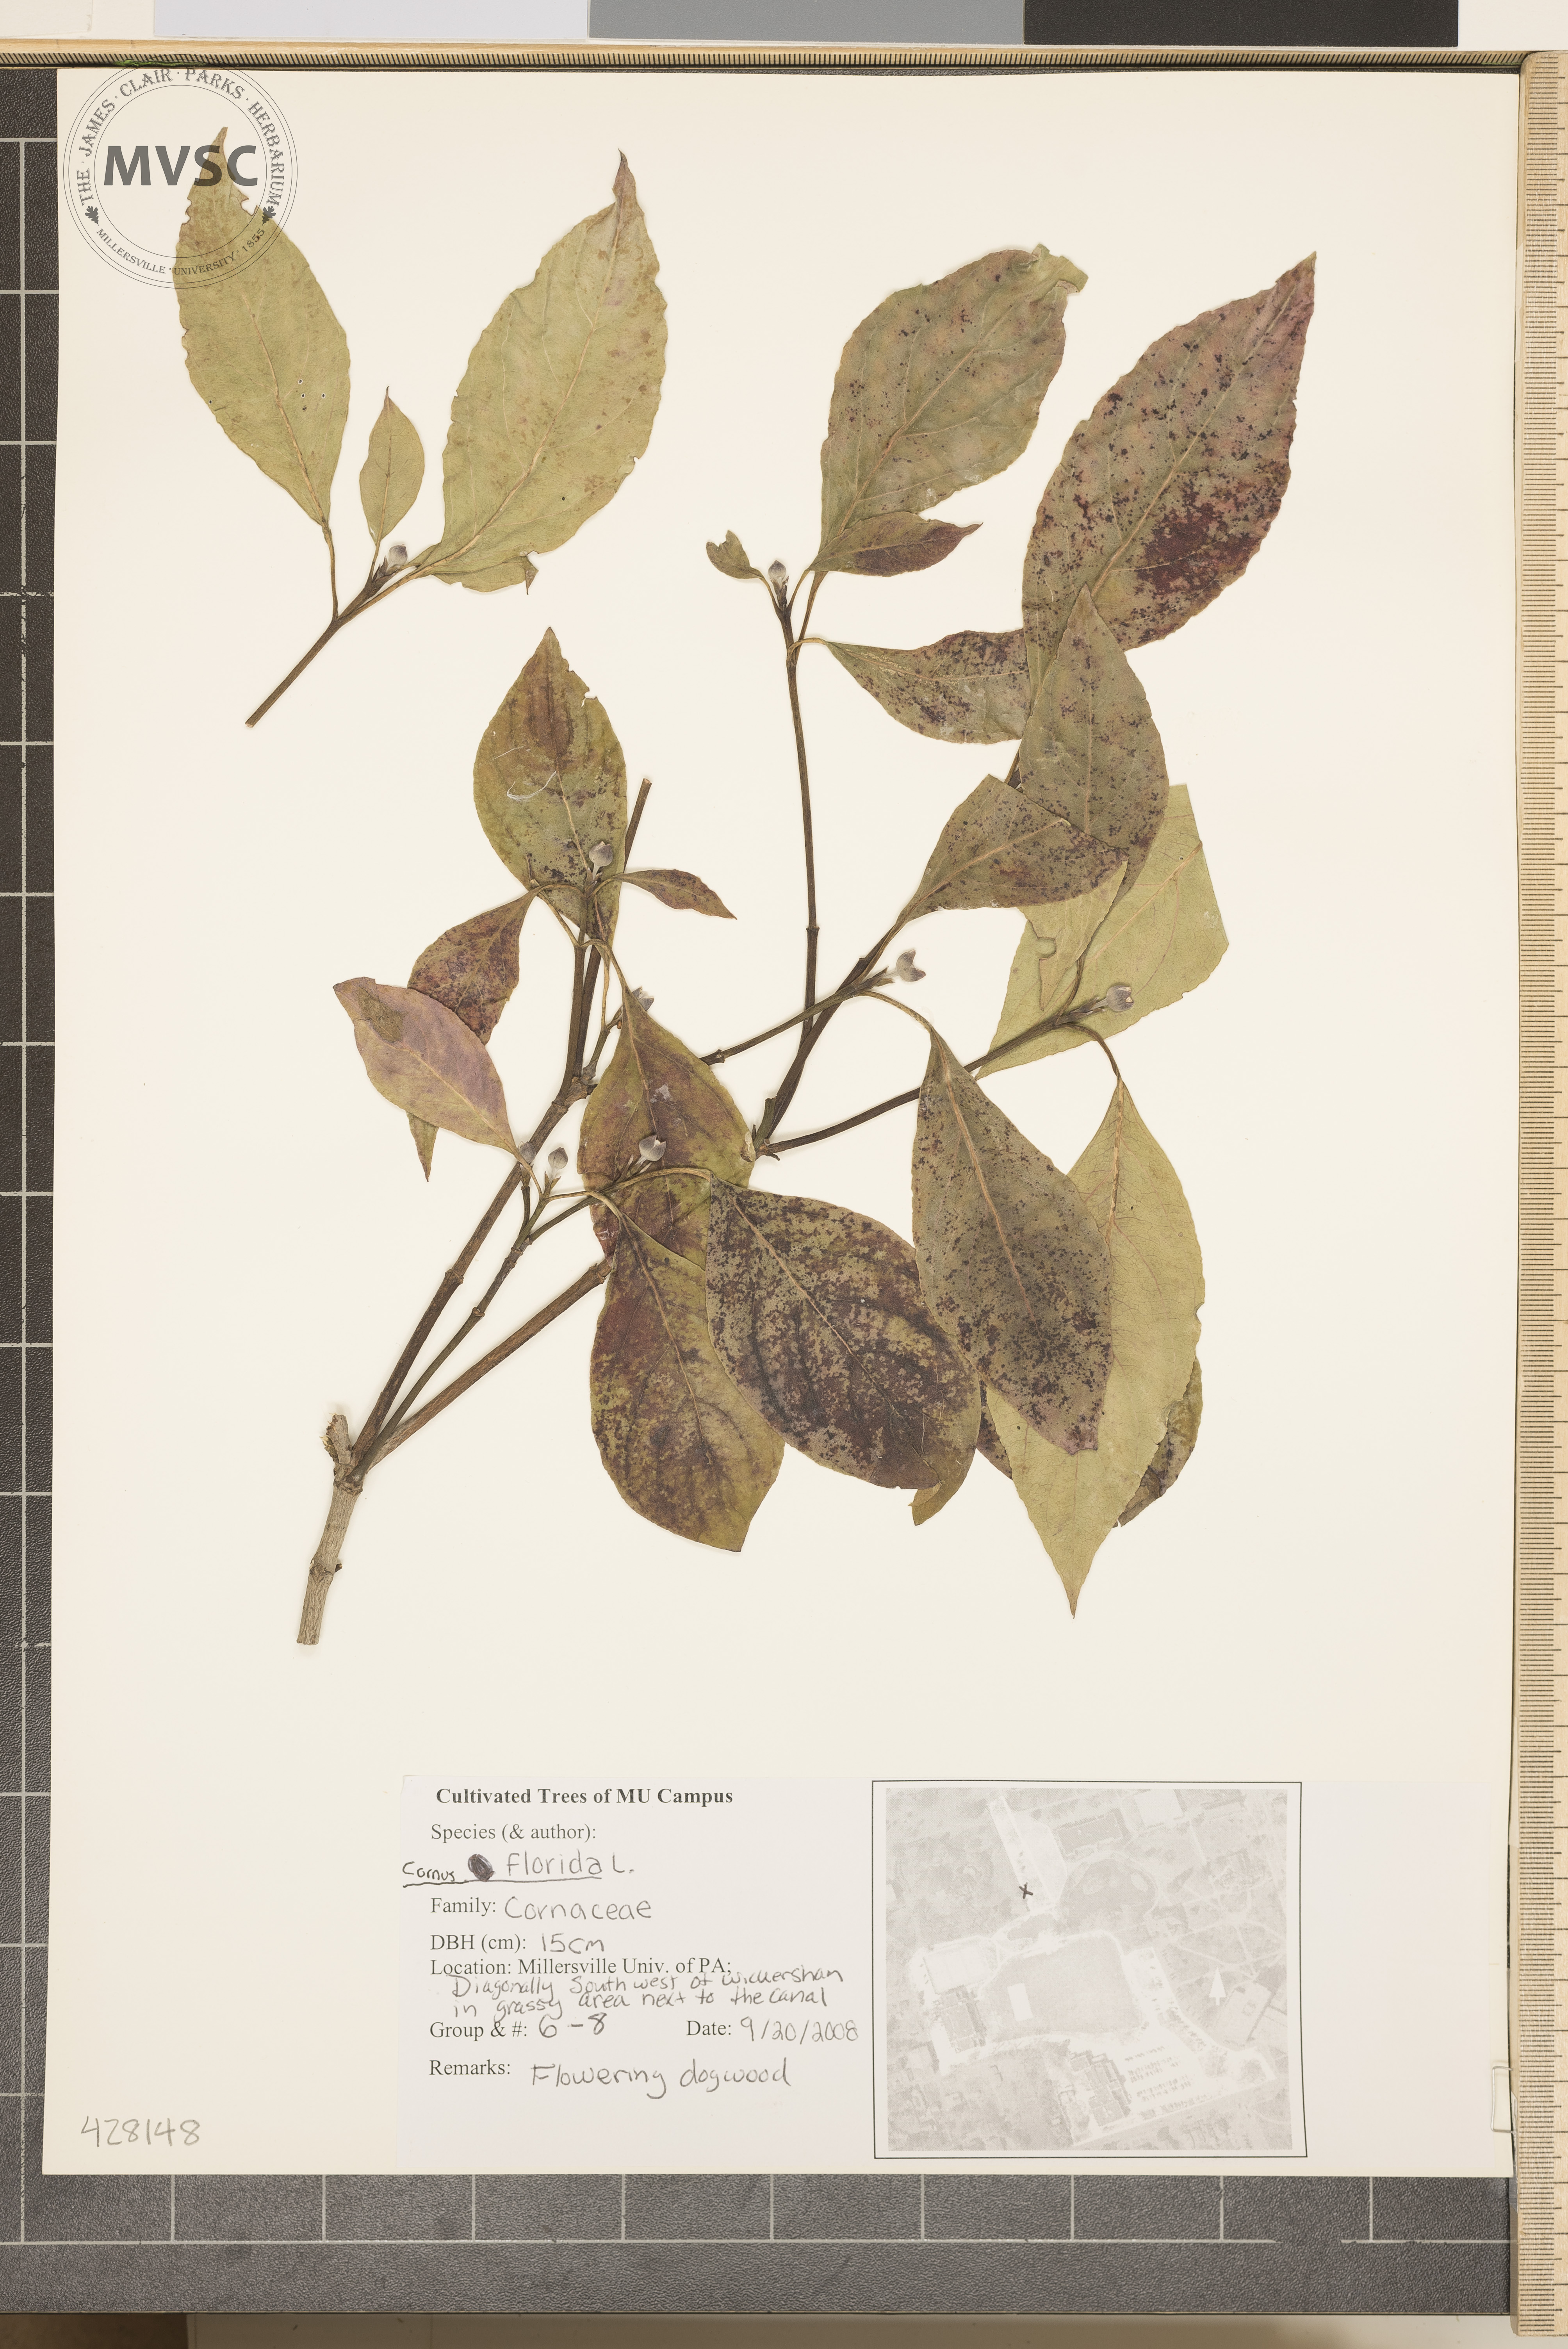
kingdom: Plantae
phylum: Tracheophyta
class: Magnoliopsida
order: Cornales
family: Cornaceae
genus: Cornus
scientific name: Cornus florida
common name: Flowering Dogwood
